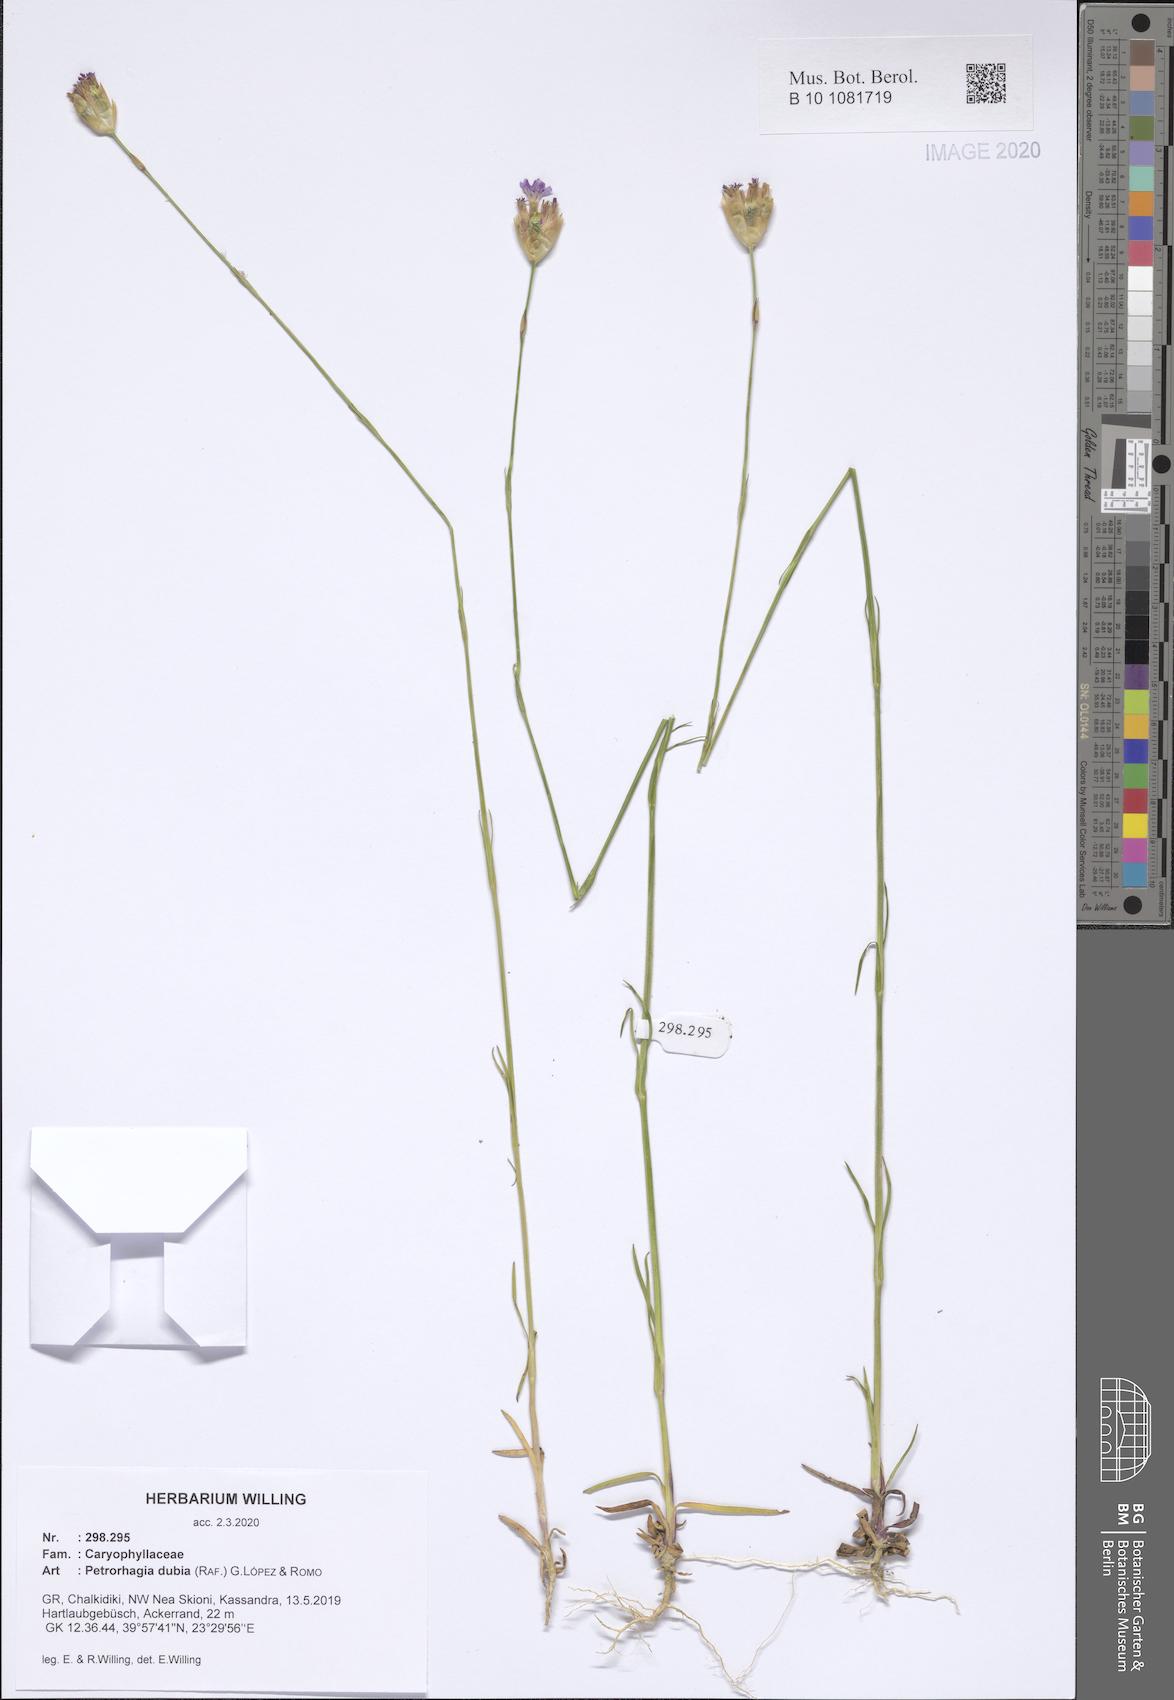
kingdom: Plantae
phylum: Tracheophyta
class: Magnoliopsida
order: Caryophyllales
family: Caryophyllaceae
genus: Petrorhagia
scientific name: Petrorhagia dubia
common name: Hairypink
